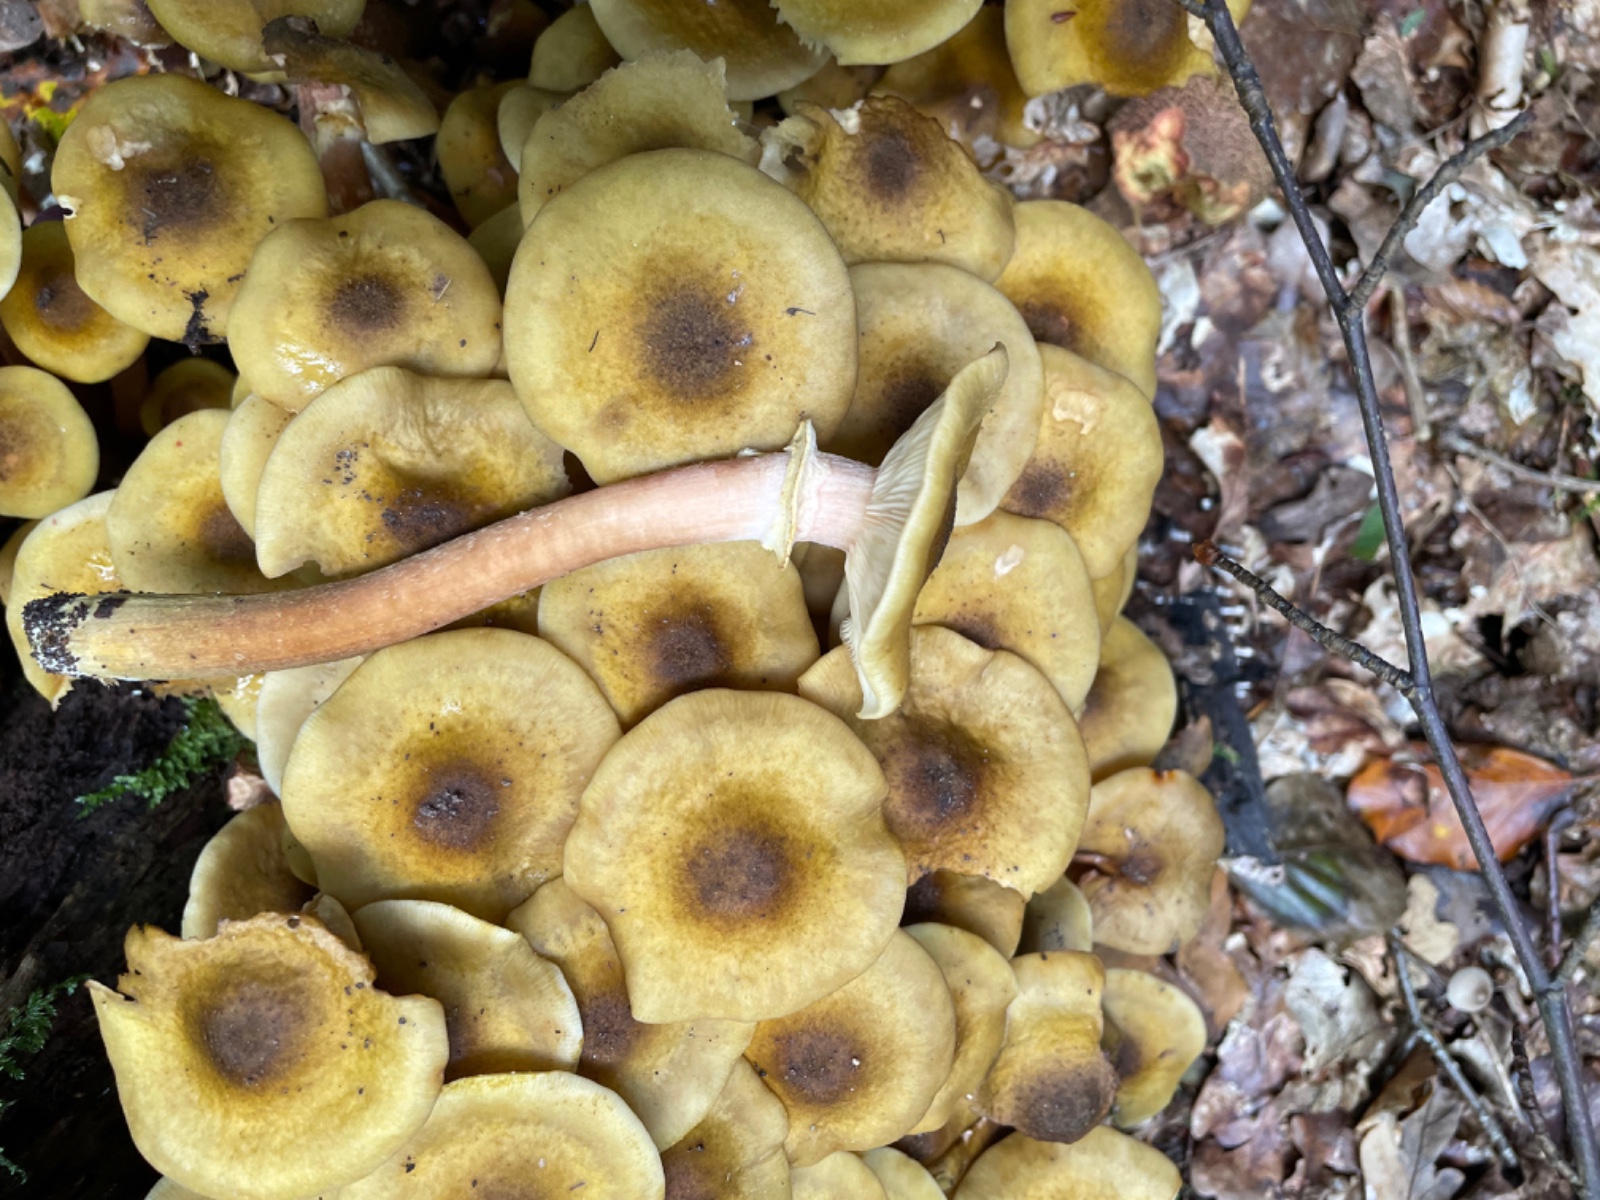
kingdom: Fungi
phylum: Basidiomycota
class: Agaricomycetes
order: Agaricales
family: Physalacriaceae
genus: Armillaria
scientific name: Armillaria mellea
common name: ægte honningsvamp
